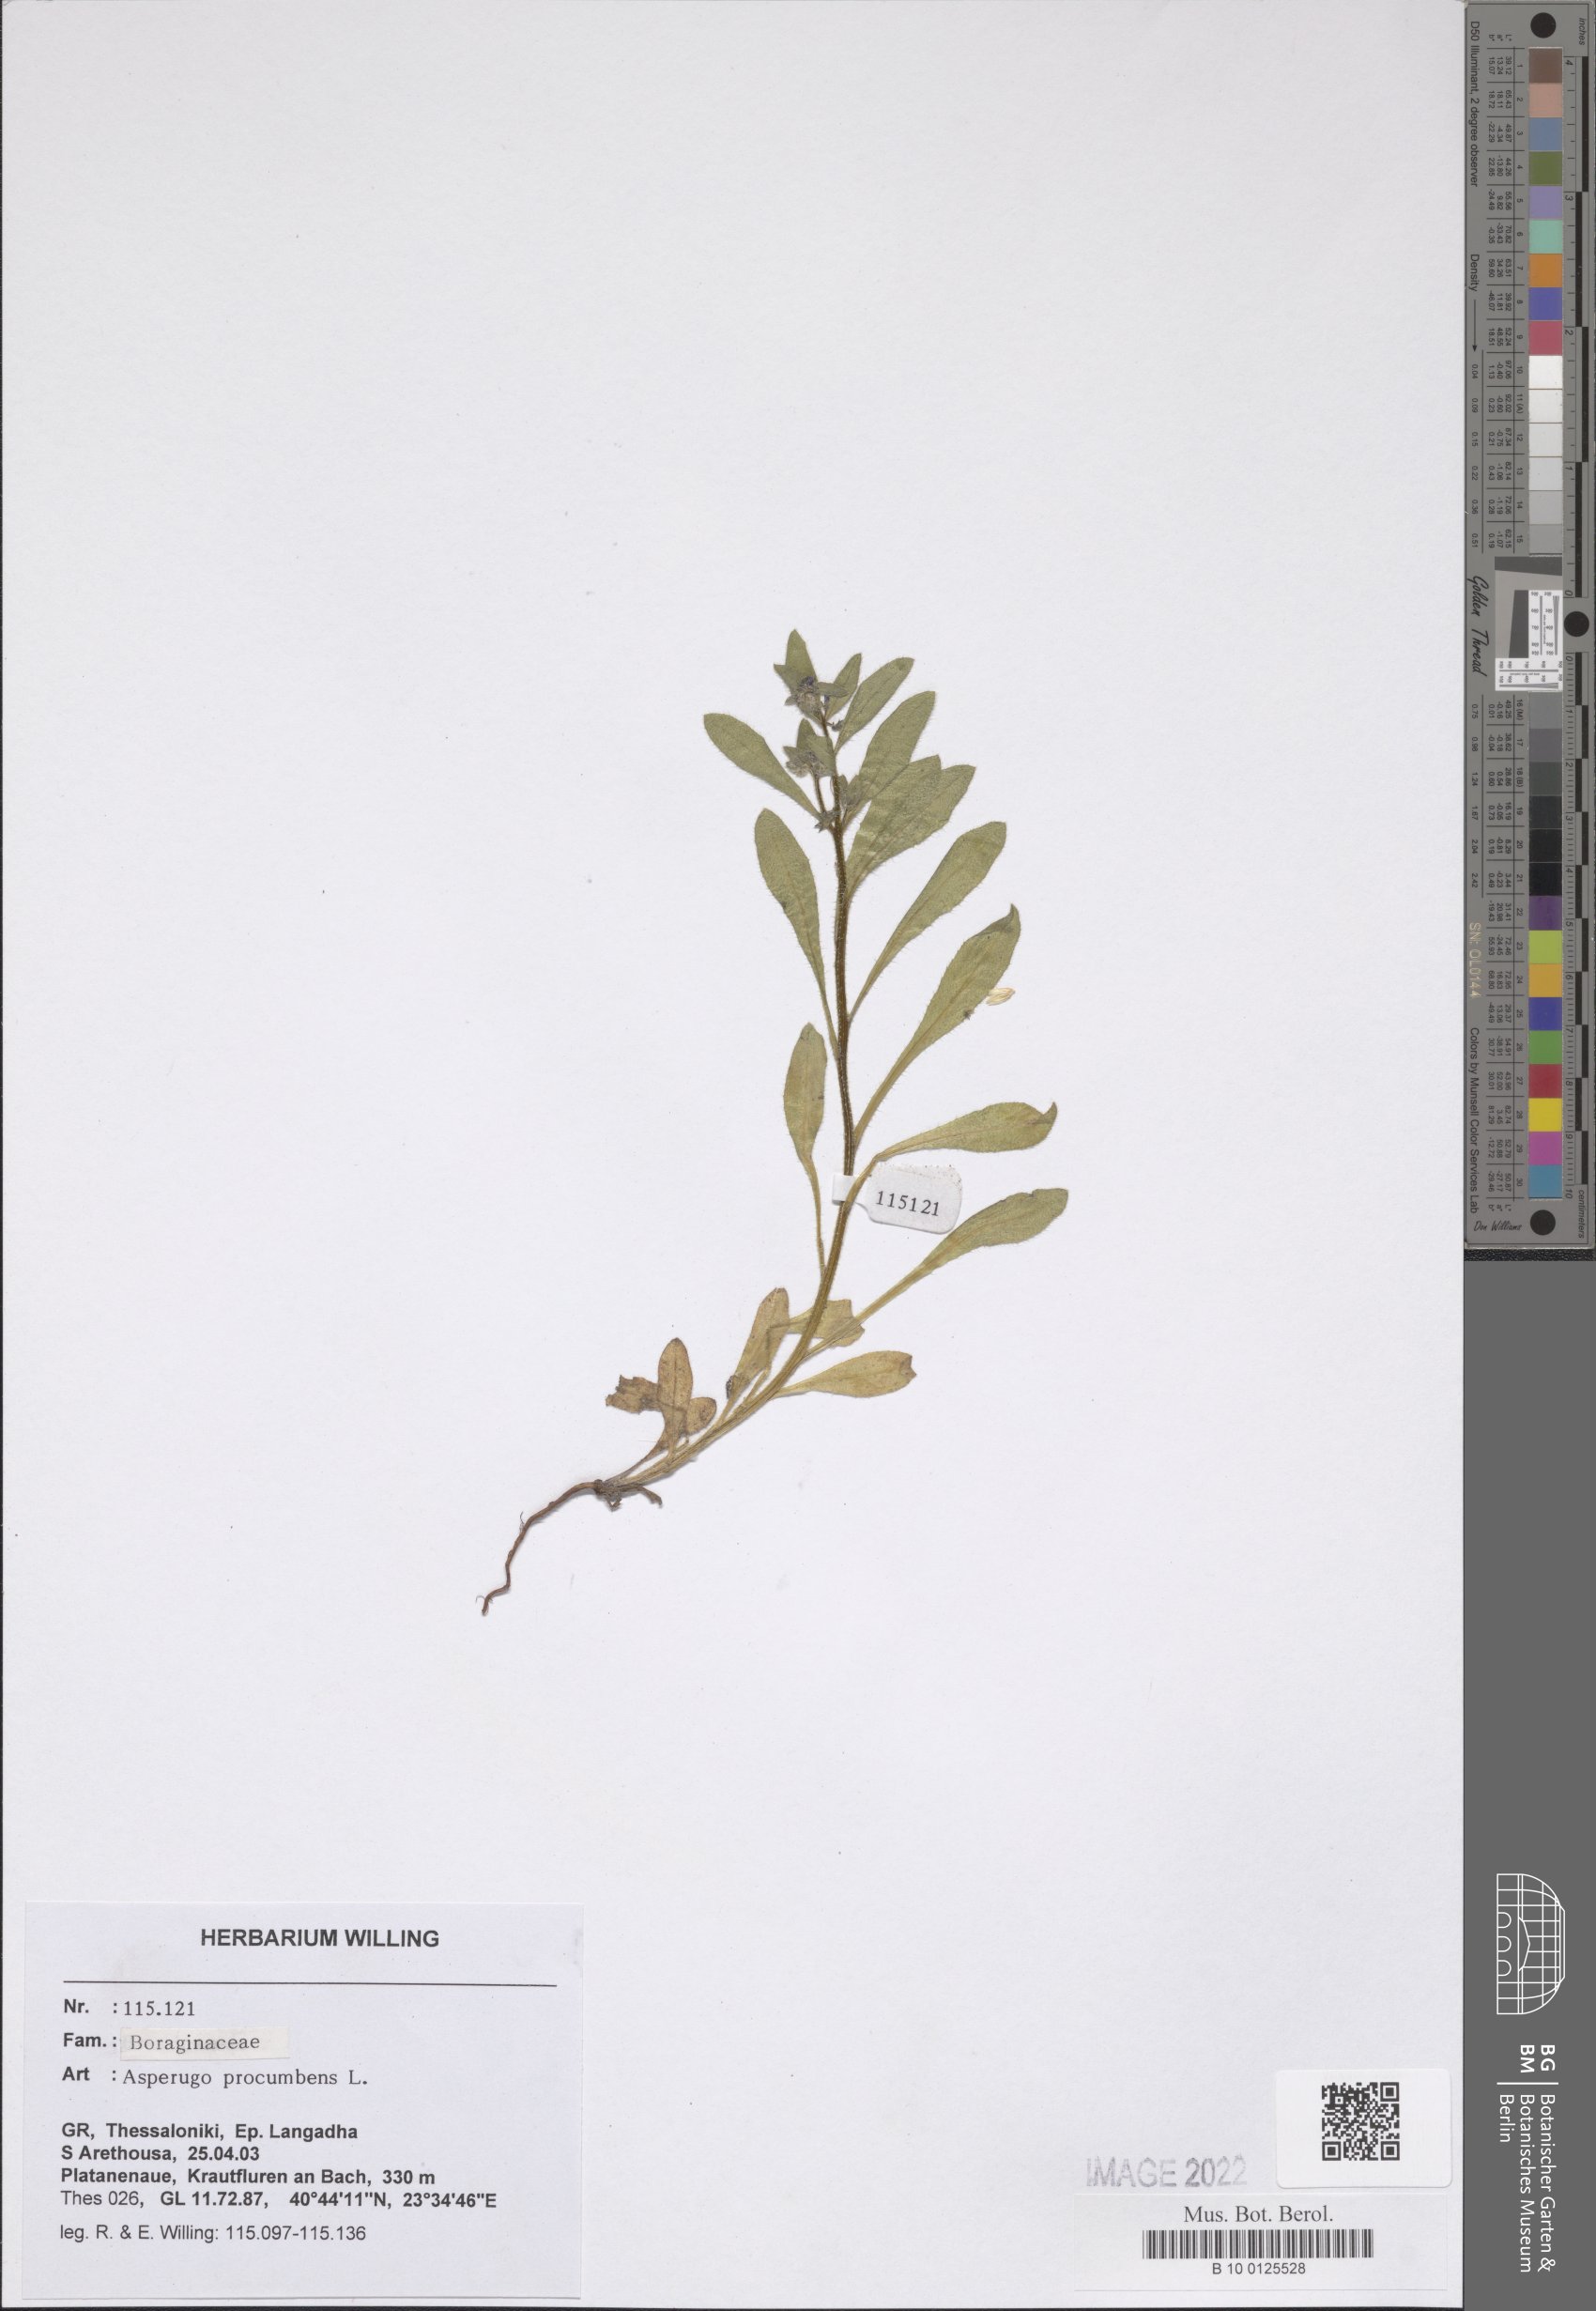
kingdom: Plantae
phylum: Tracheophyta
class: Magnoliopsida
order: Boraginales
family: Boraginaceae
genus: Asperugo
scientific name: Asperugo procumbens
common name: Madwort
